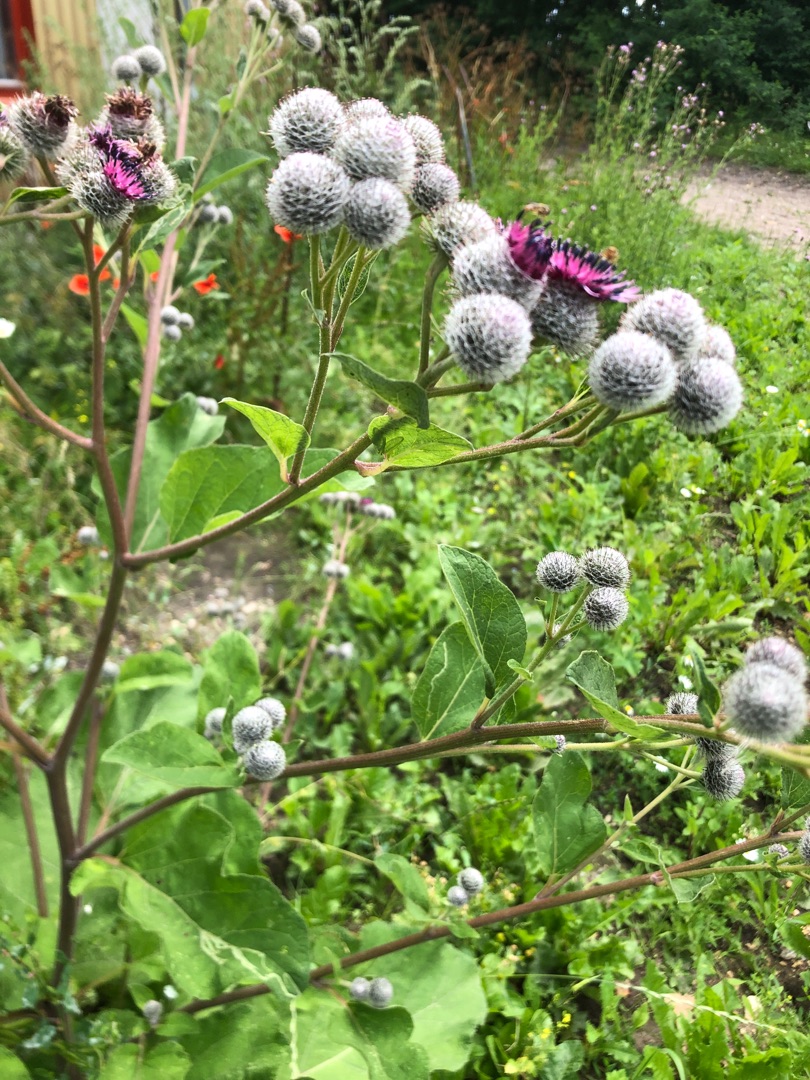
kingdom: Plantae
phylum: Tracheophyta
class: Magnoliopsida
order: Asterales
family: Asteraceae
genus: Arctium
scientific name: Arctium tomentosum
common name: Filtet burre
